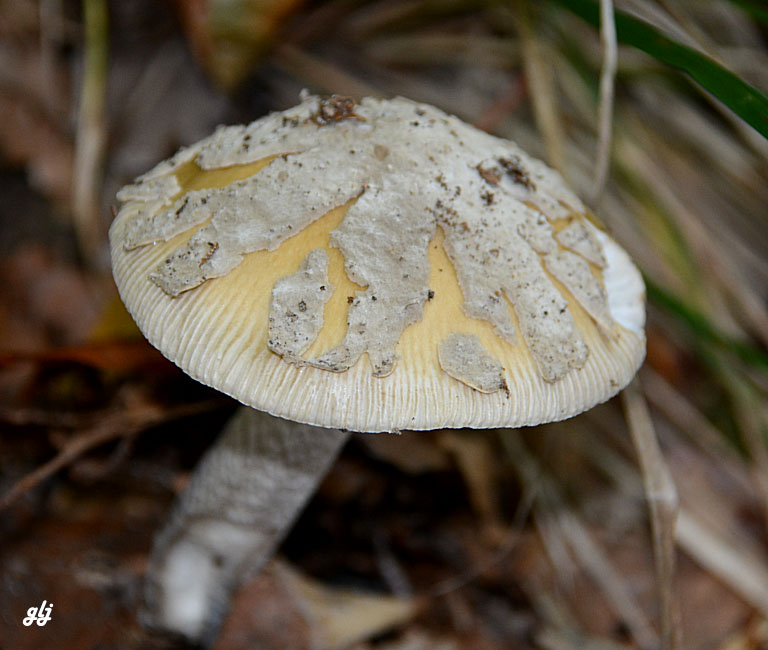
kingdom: Fungi
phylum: Basidiomycota
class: Agaricomycetes
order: Agaricales
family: Amanitaceae
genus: Amanita
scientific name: Amanita ceciliae
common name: stor kam-fluesvamp
